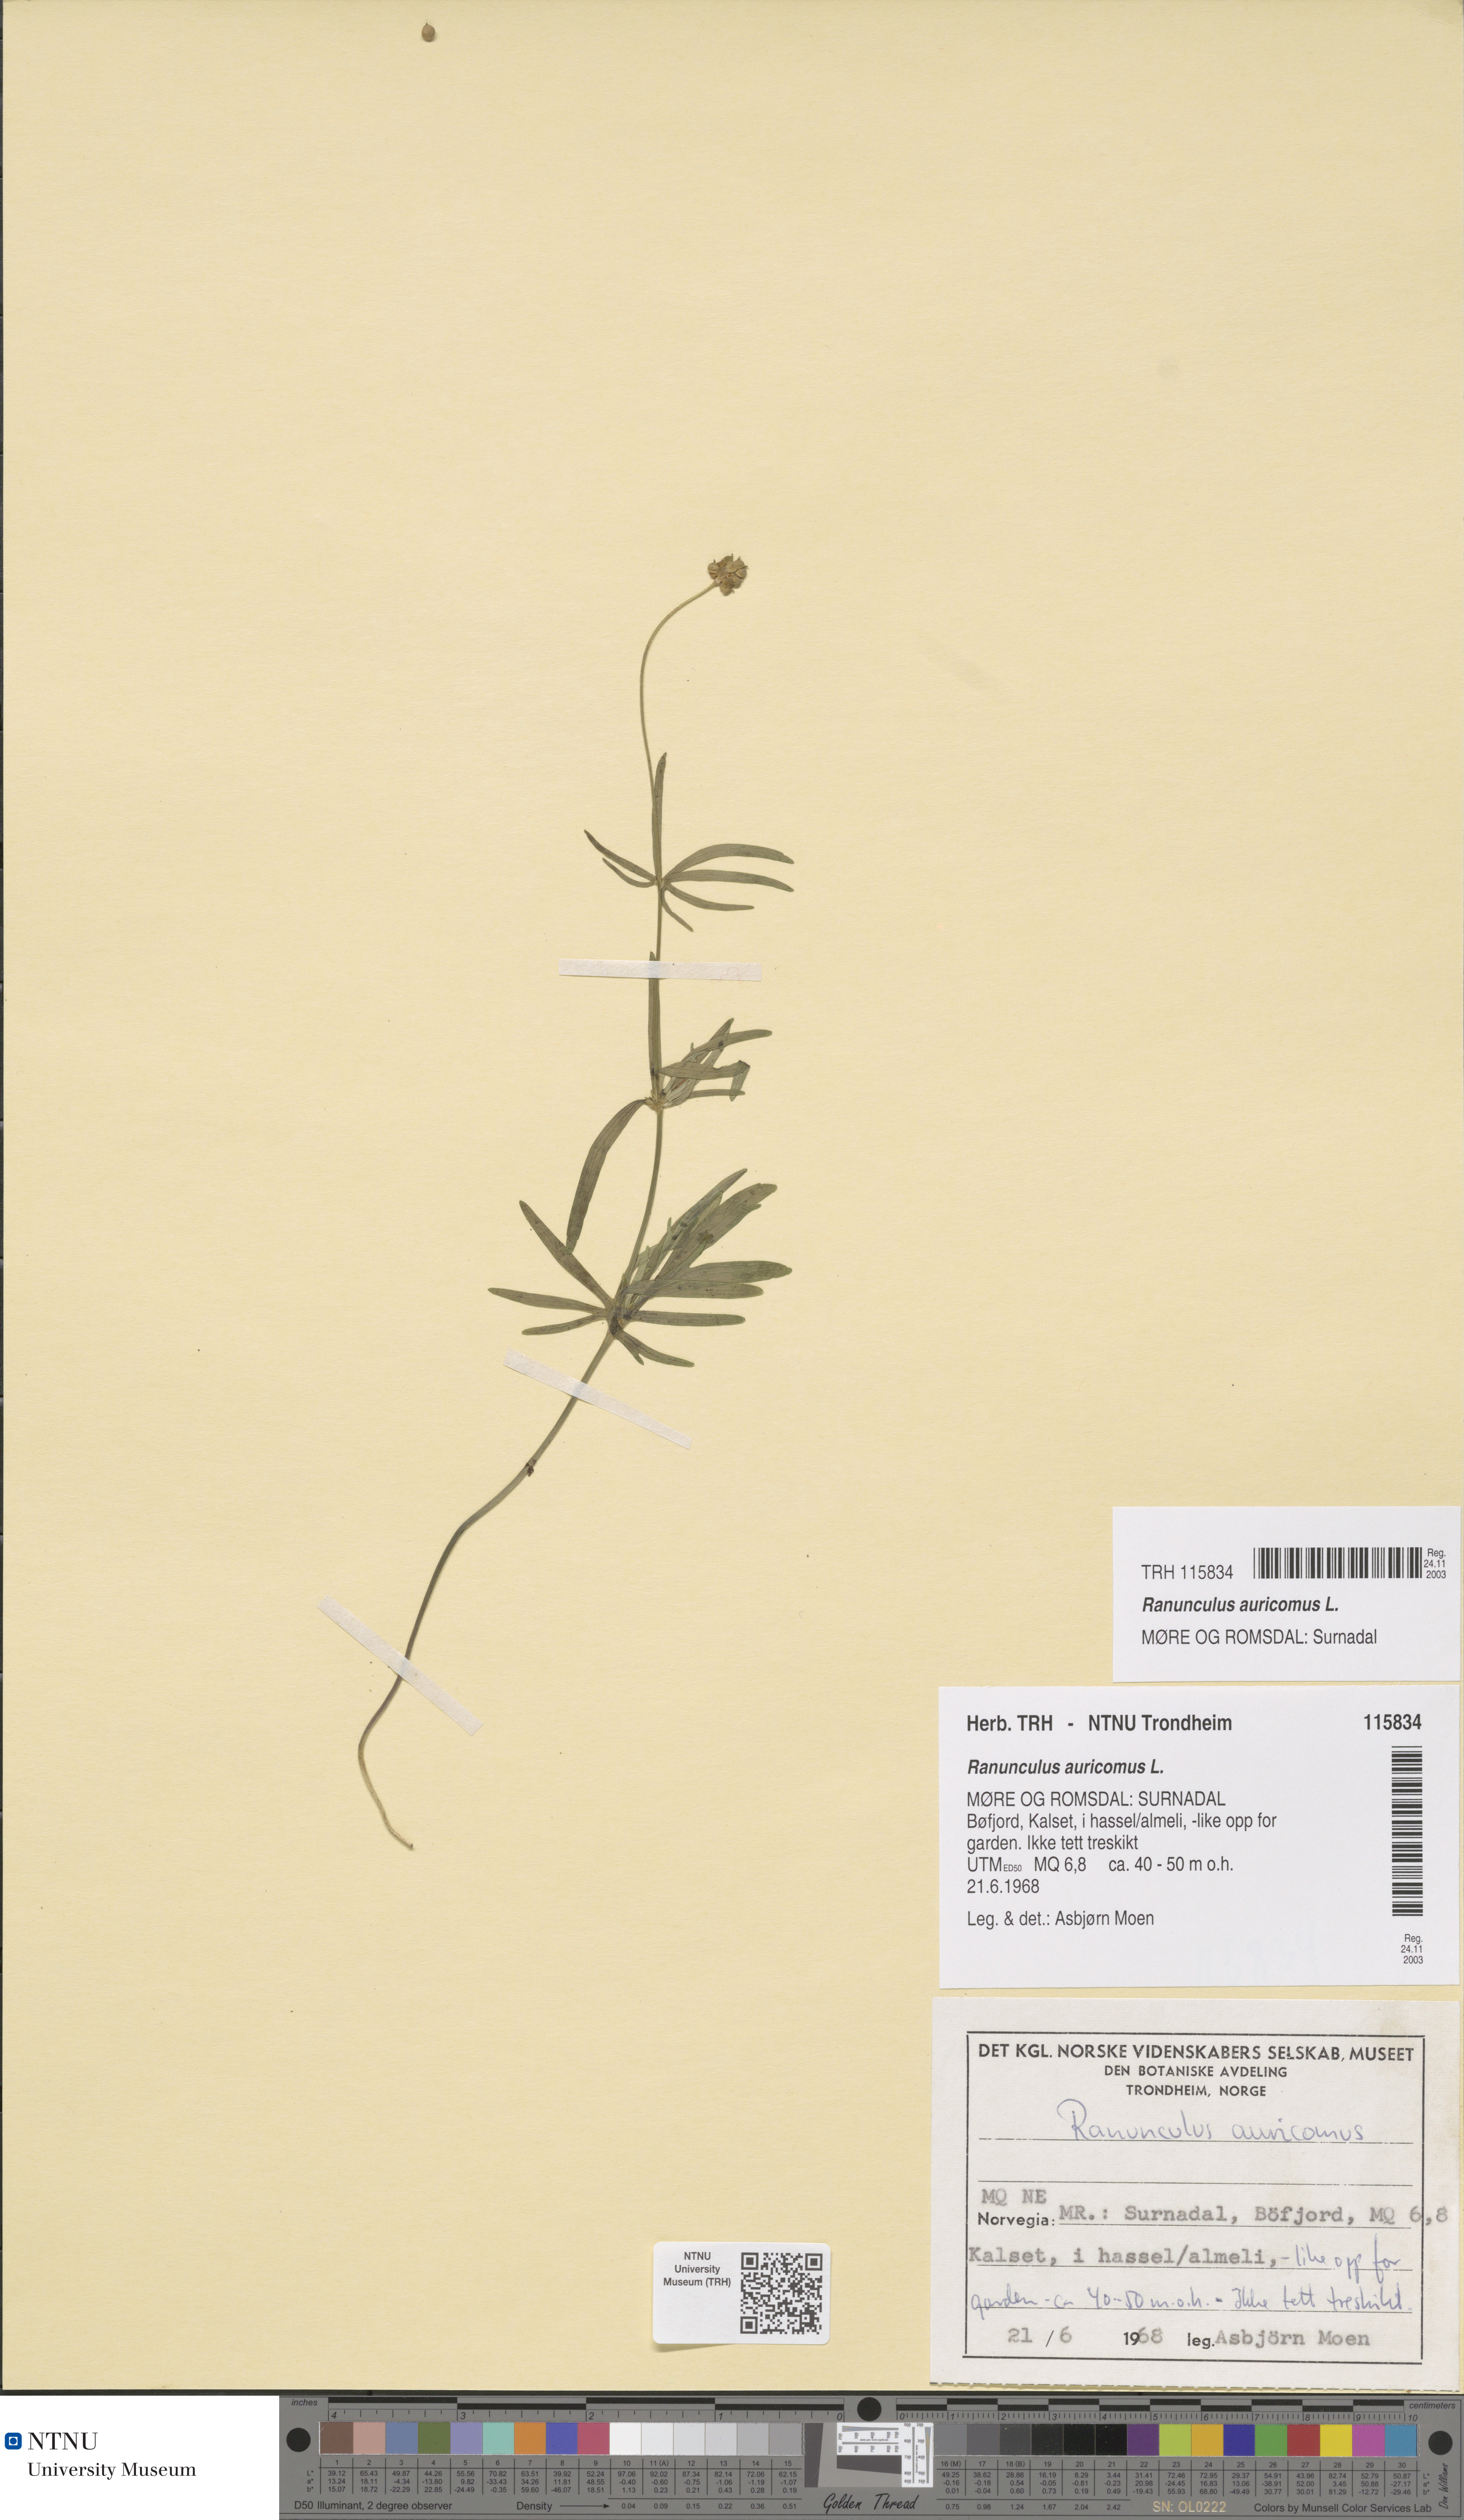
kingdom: Plantae
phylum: Tracheophyta
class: Magnoliopsida
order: Ranunculales
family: Ranunculaceae
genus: Ranunculus
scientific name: Ranunculus auricomus
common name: Goldilocks buttercup
